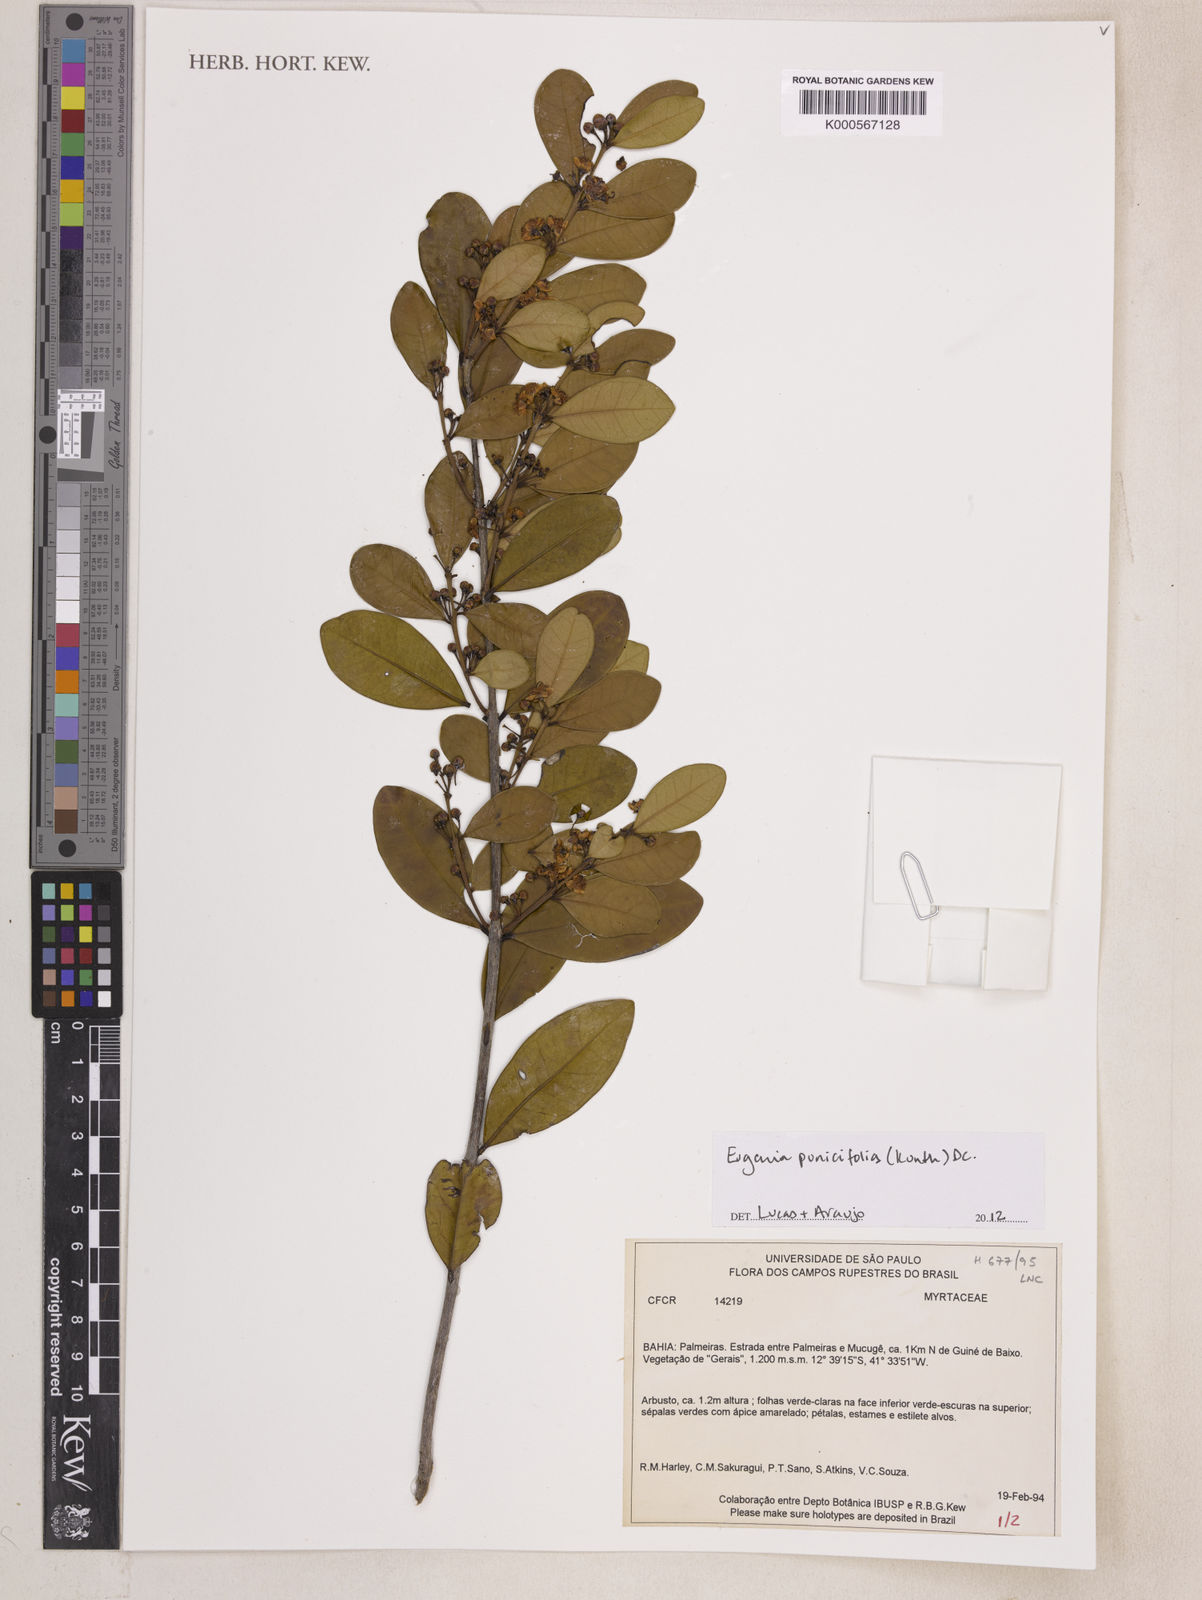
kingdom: Plantae
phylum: Tracheophyta
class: Magnoliopsida
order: Myrtales
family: Myrtaceae
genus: Eugenia
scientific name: Eugenia punicifolia
